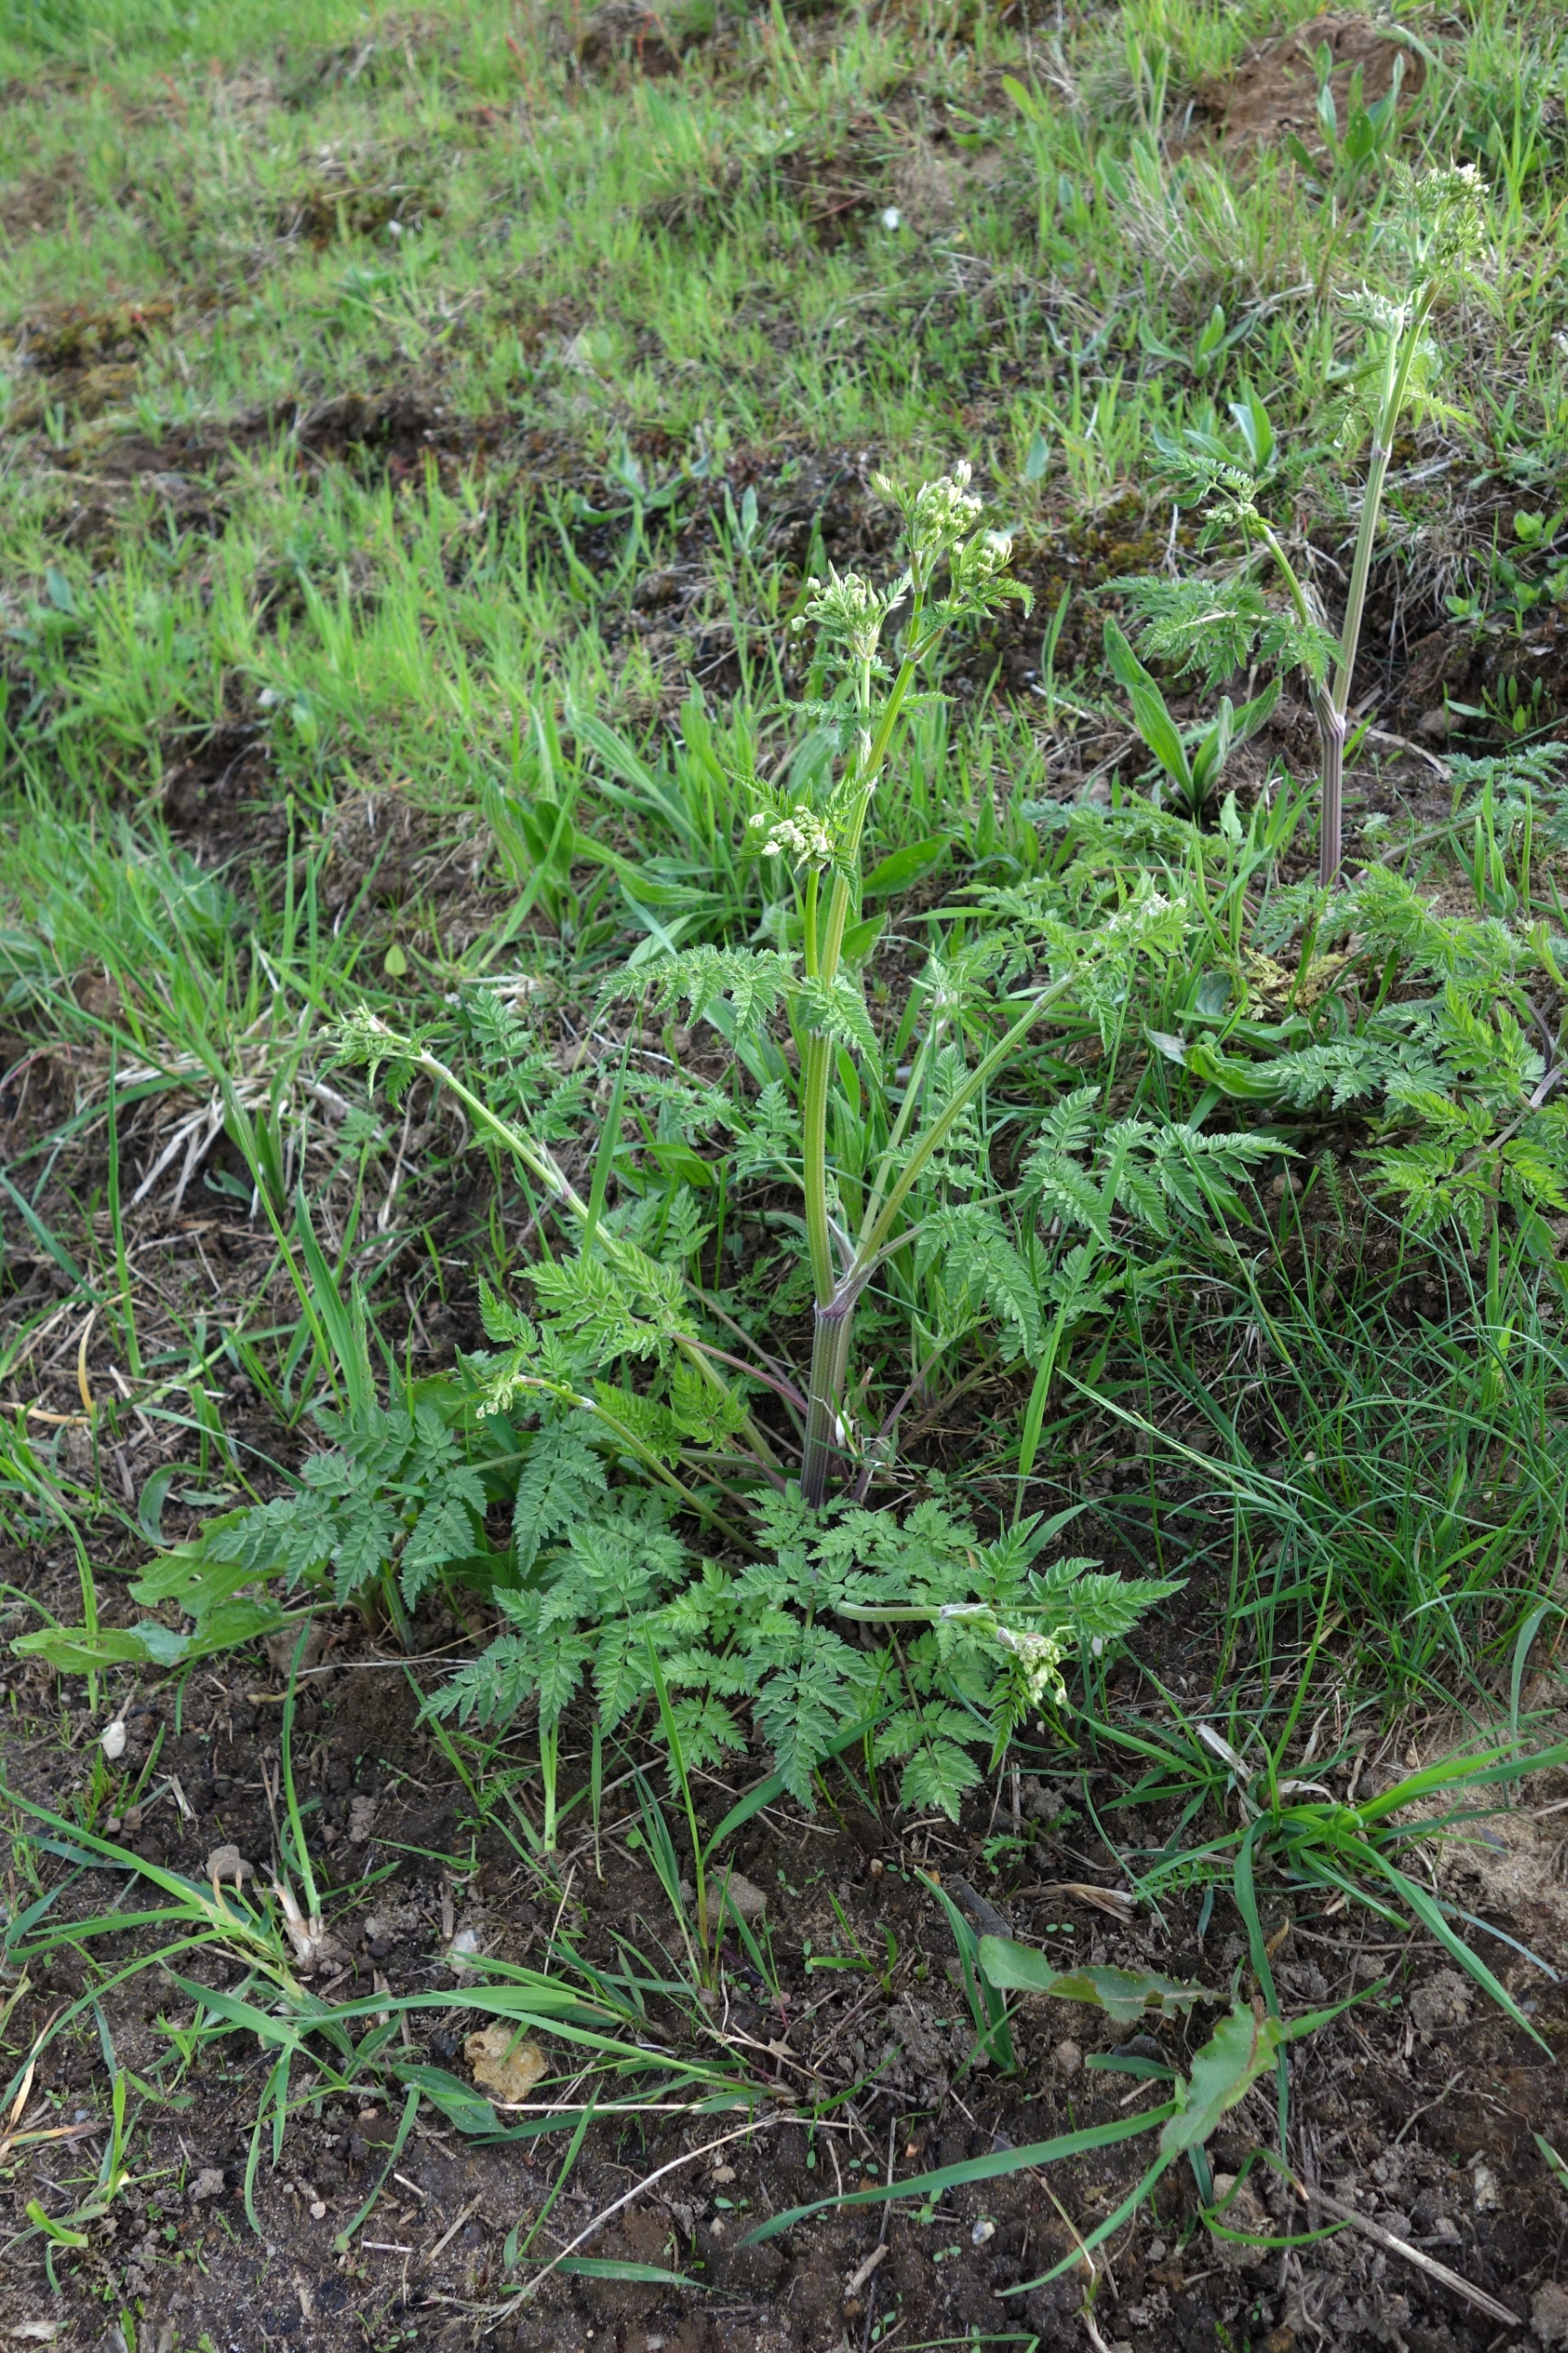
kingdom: Plantae
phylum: Tracheophyta
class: Magnoliopsida
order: Apiales
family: Apiaceae
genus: Anthriscus
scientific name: Anthriscus sylvestris
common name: Vild kørvel
